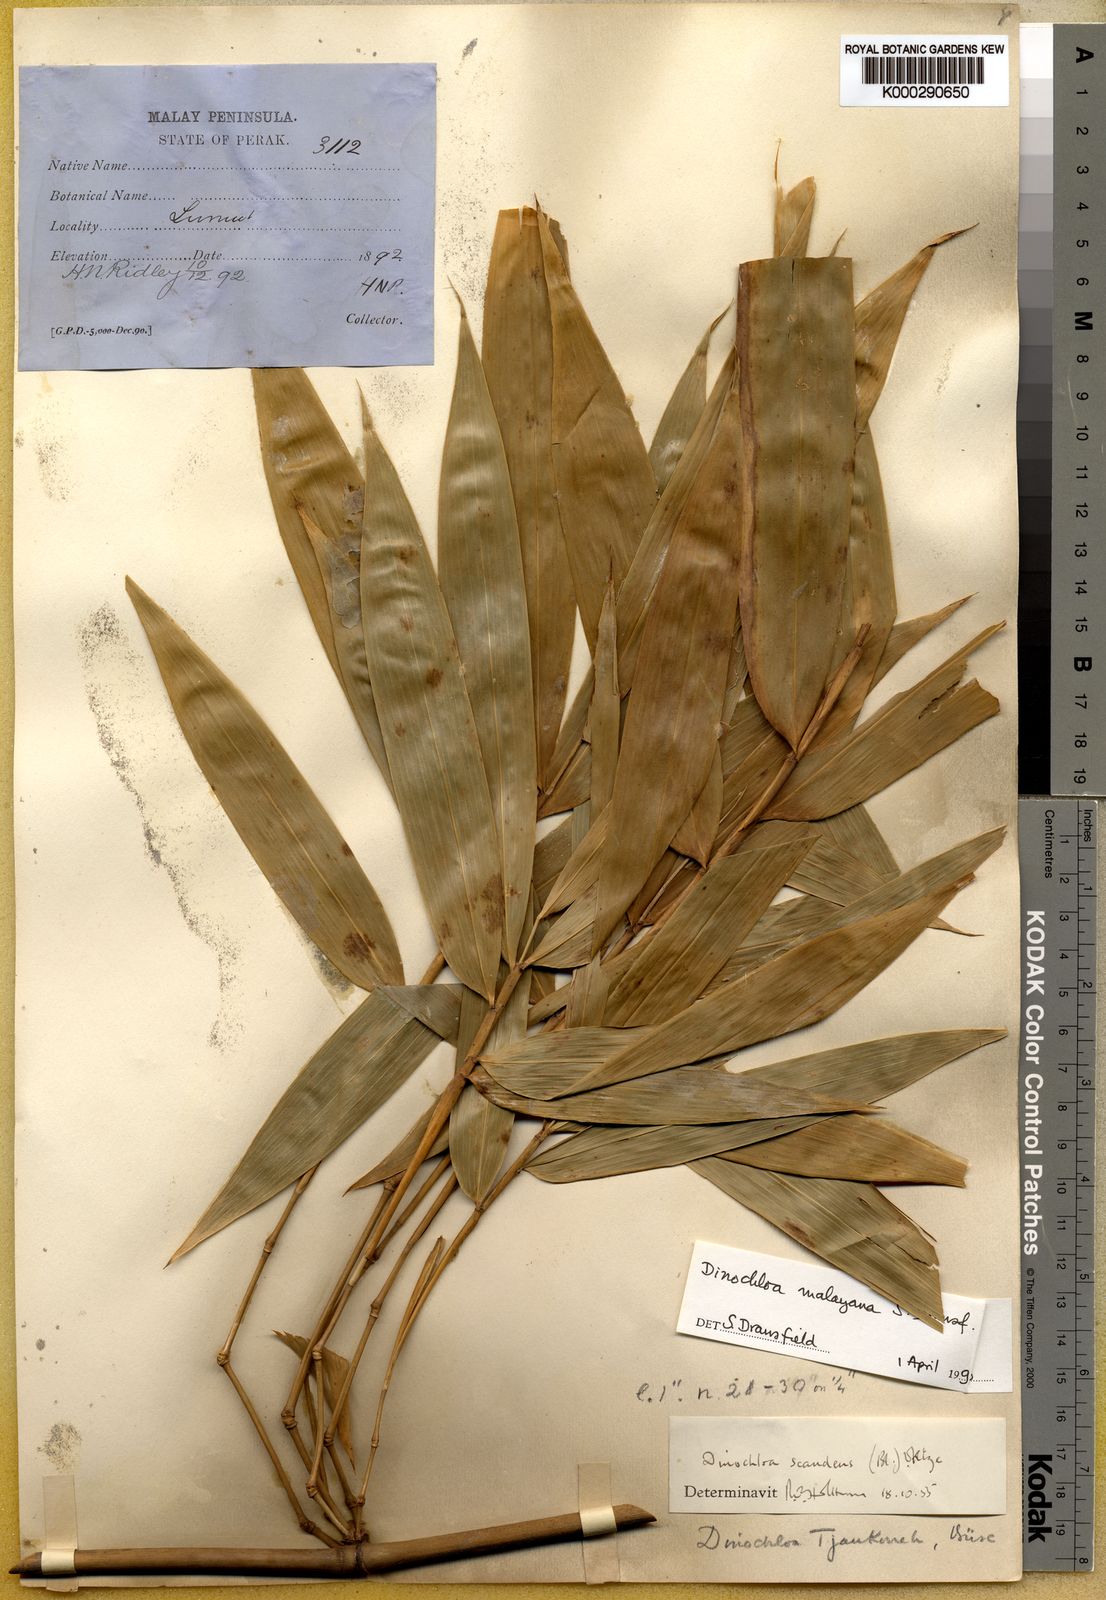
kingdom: Plantae
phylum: Tracheophyta
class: Liliopsida
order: Poales
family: Poaceae
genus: Dinochloa
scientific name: Dinochloa malayana
